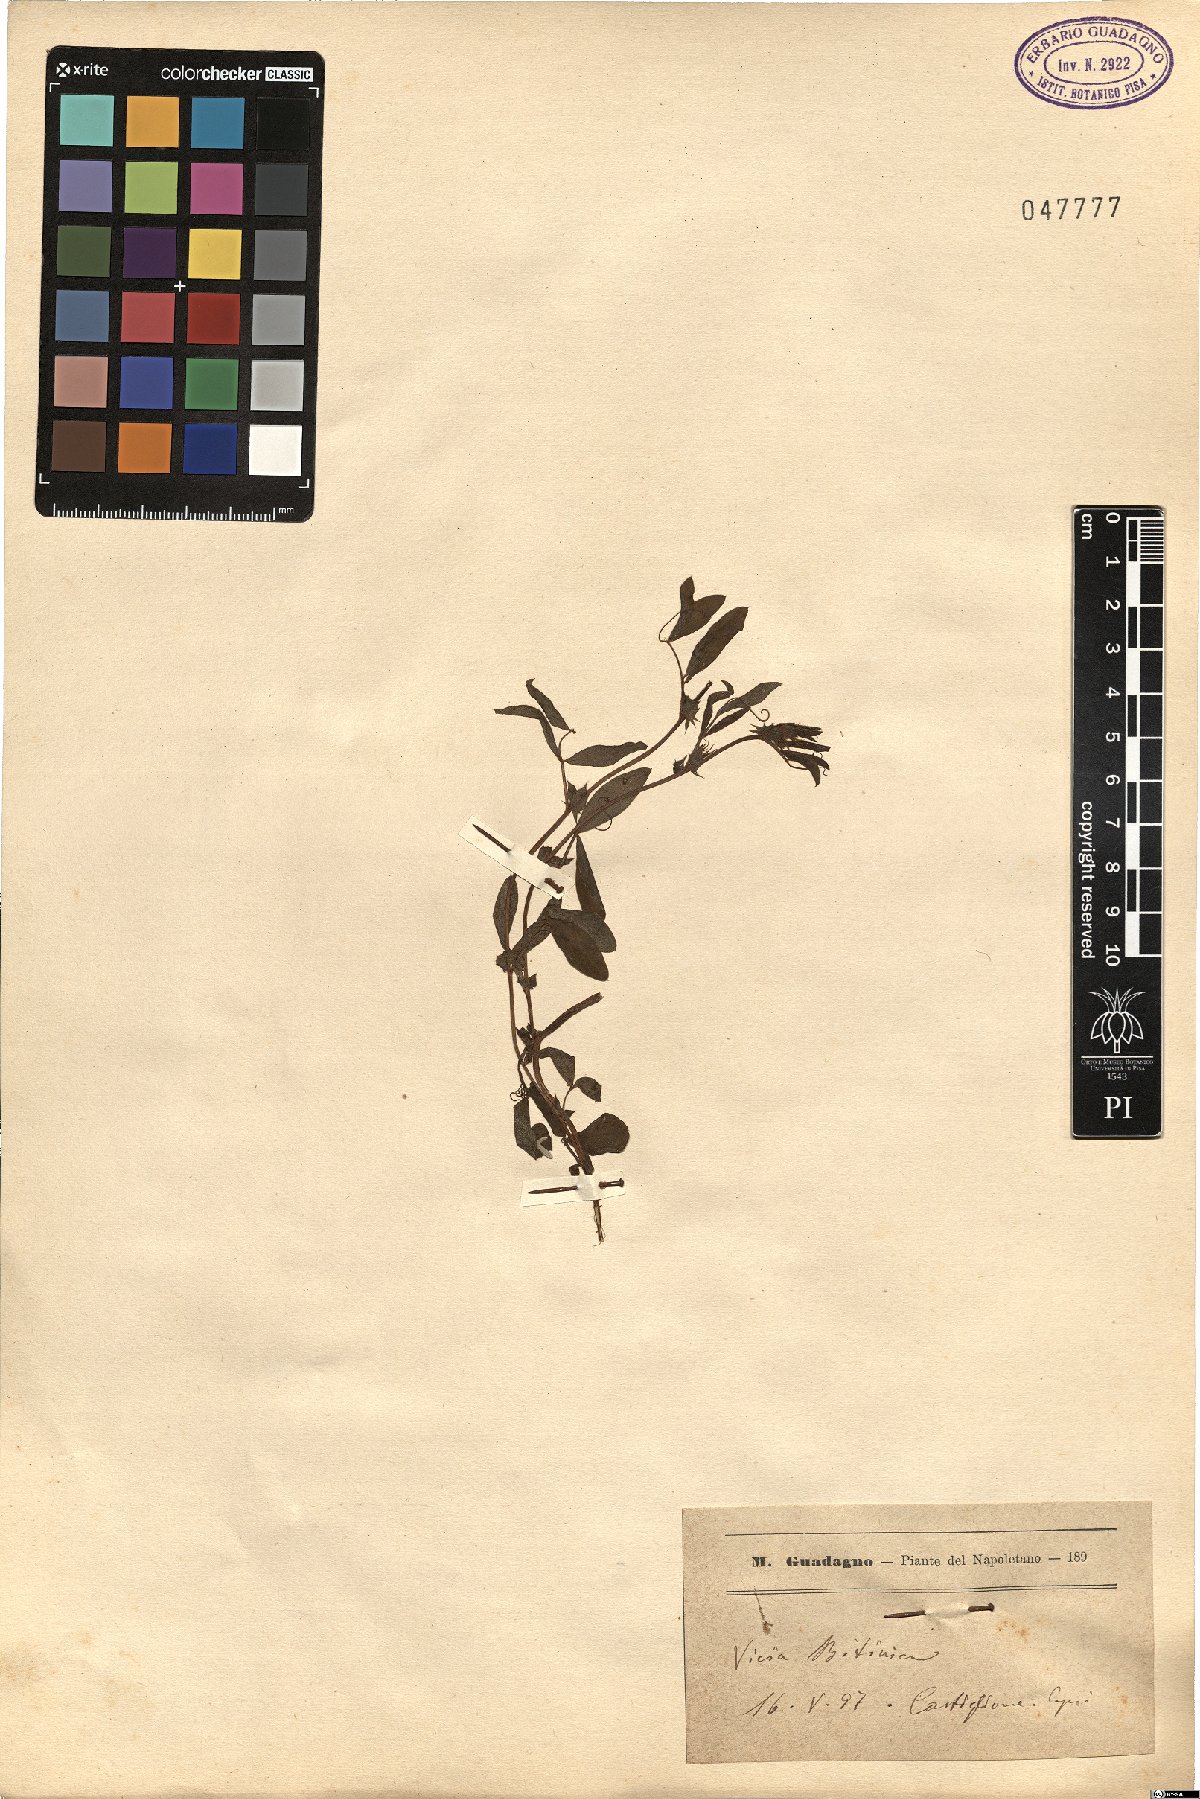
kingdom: Plantae
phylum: Tracheophyta
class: Magnoliopsida
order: Fabales
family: Fabaceae
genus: Vicia
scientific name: Vicia bithynica
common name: Bithynian vetch
